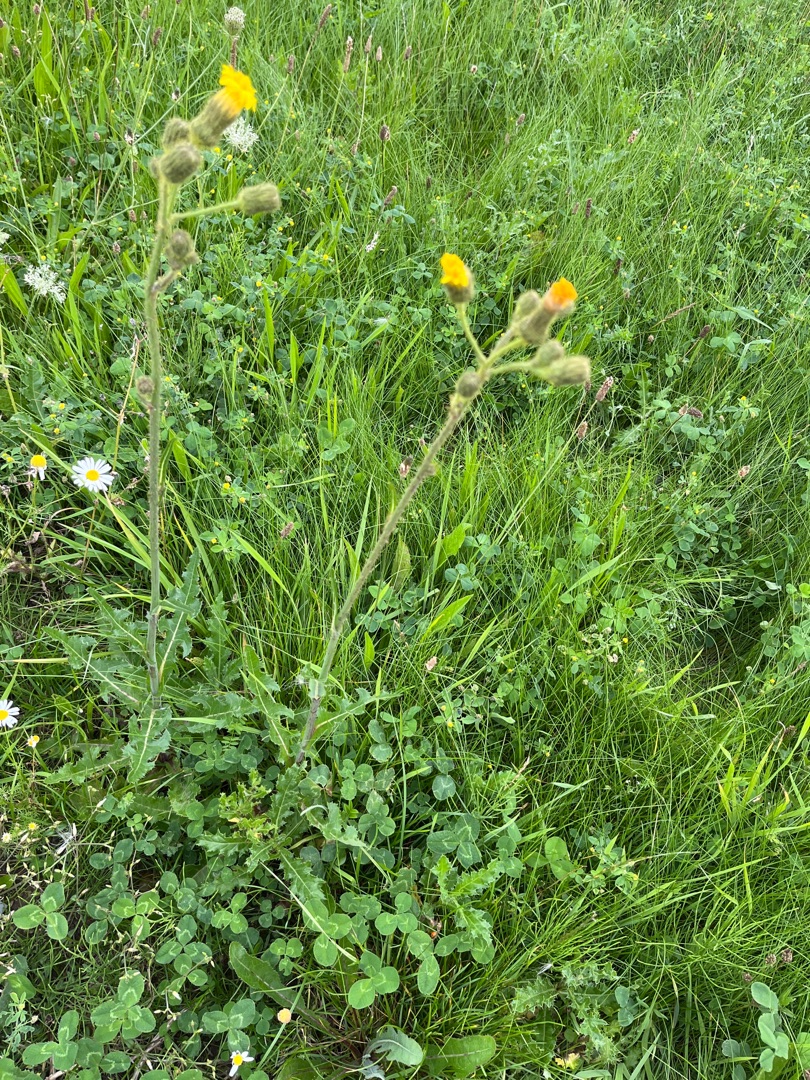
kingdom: Plantae
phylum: Tracheophyta
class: Magnoliopsida
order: Asterales
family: Asteraceae
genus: Sonchus
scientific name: Sonchus arvensis
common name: Ager-svinemælk
